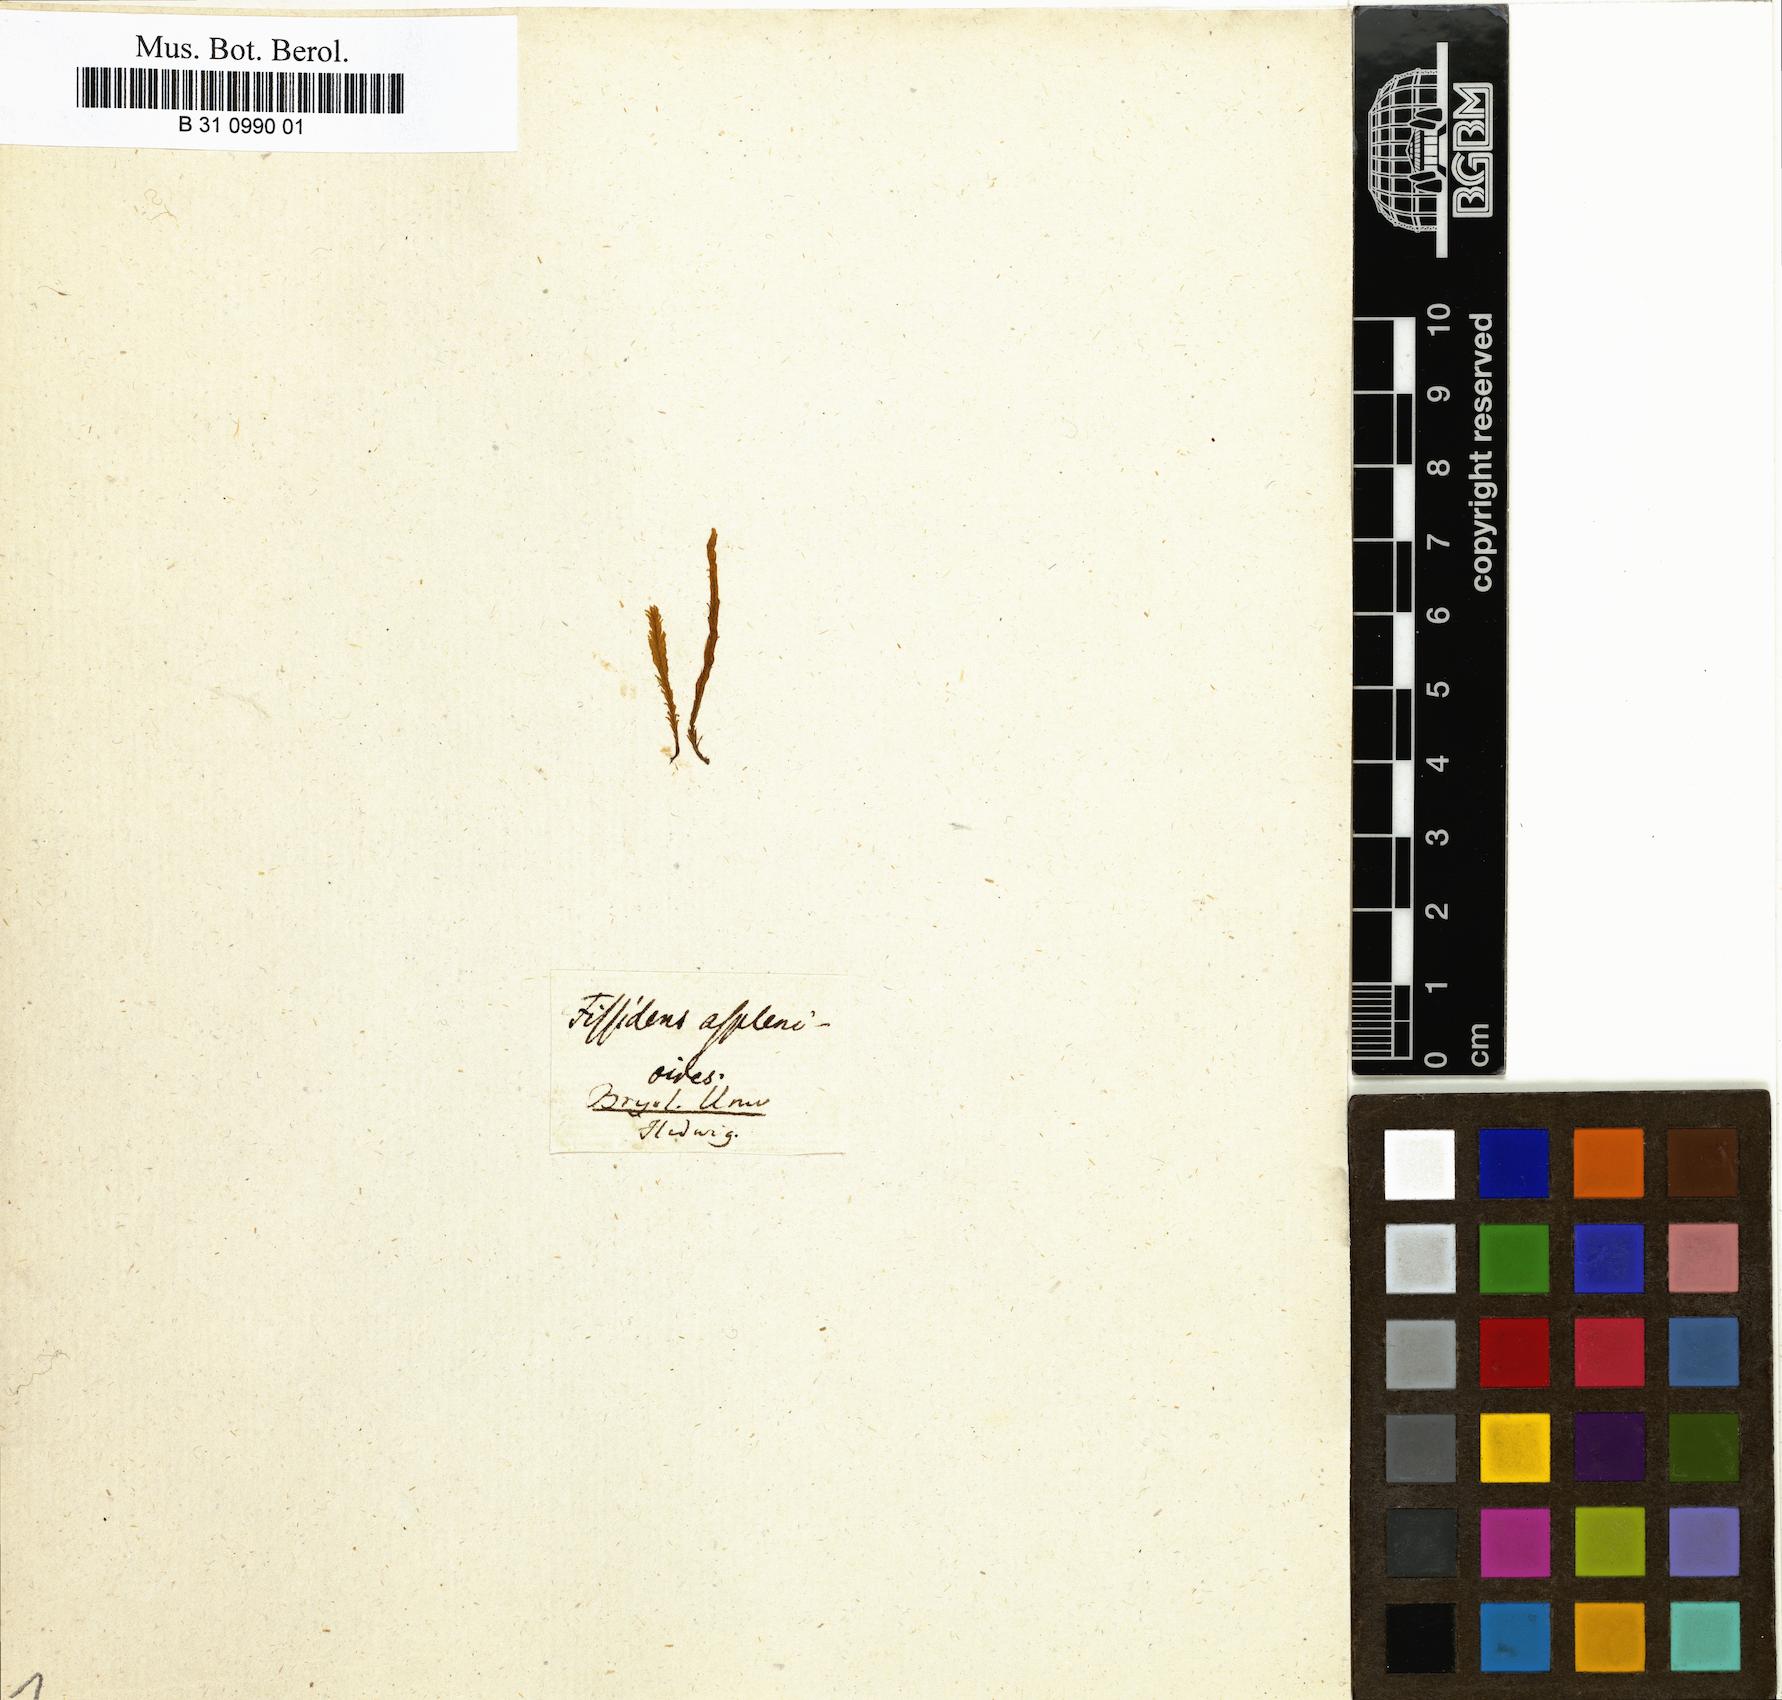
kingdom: Plantae
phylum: Bryophyta
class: Bryopsida
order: Dicranales
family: Fissidentaceae
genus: Fissidens
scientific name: Fissidens asplenioides
